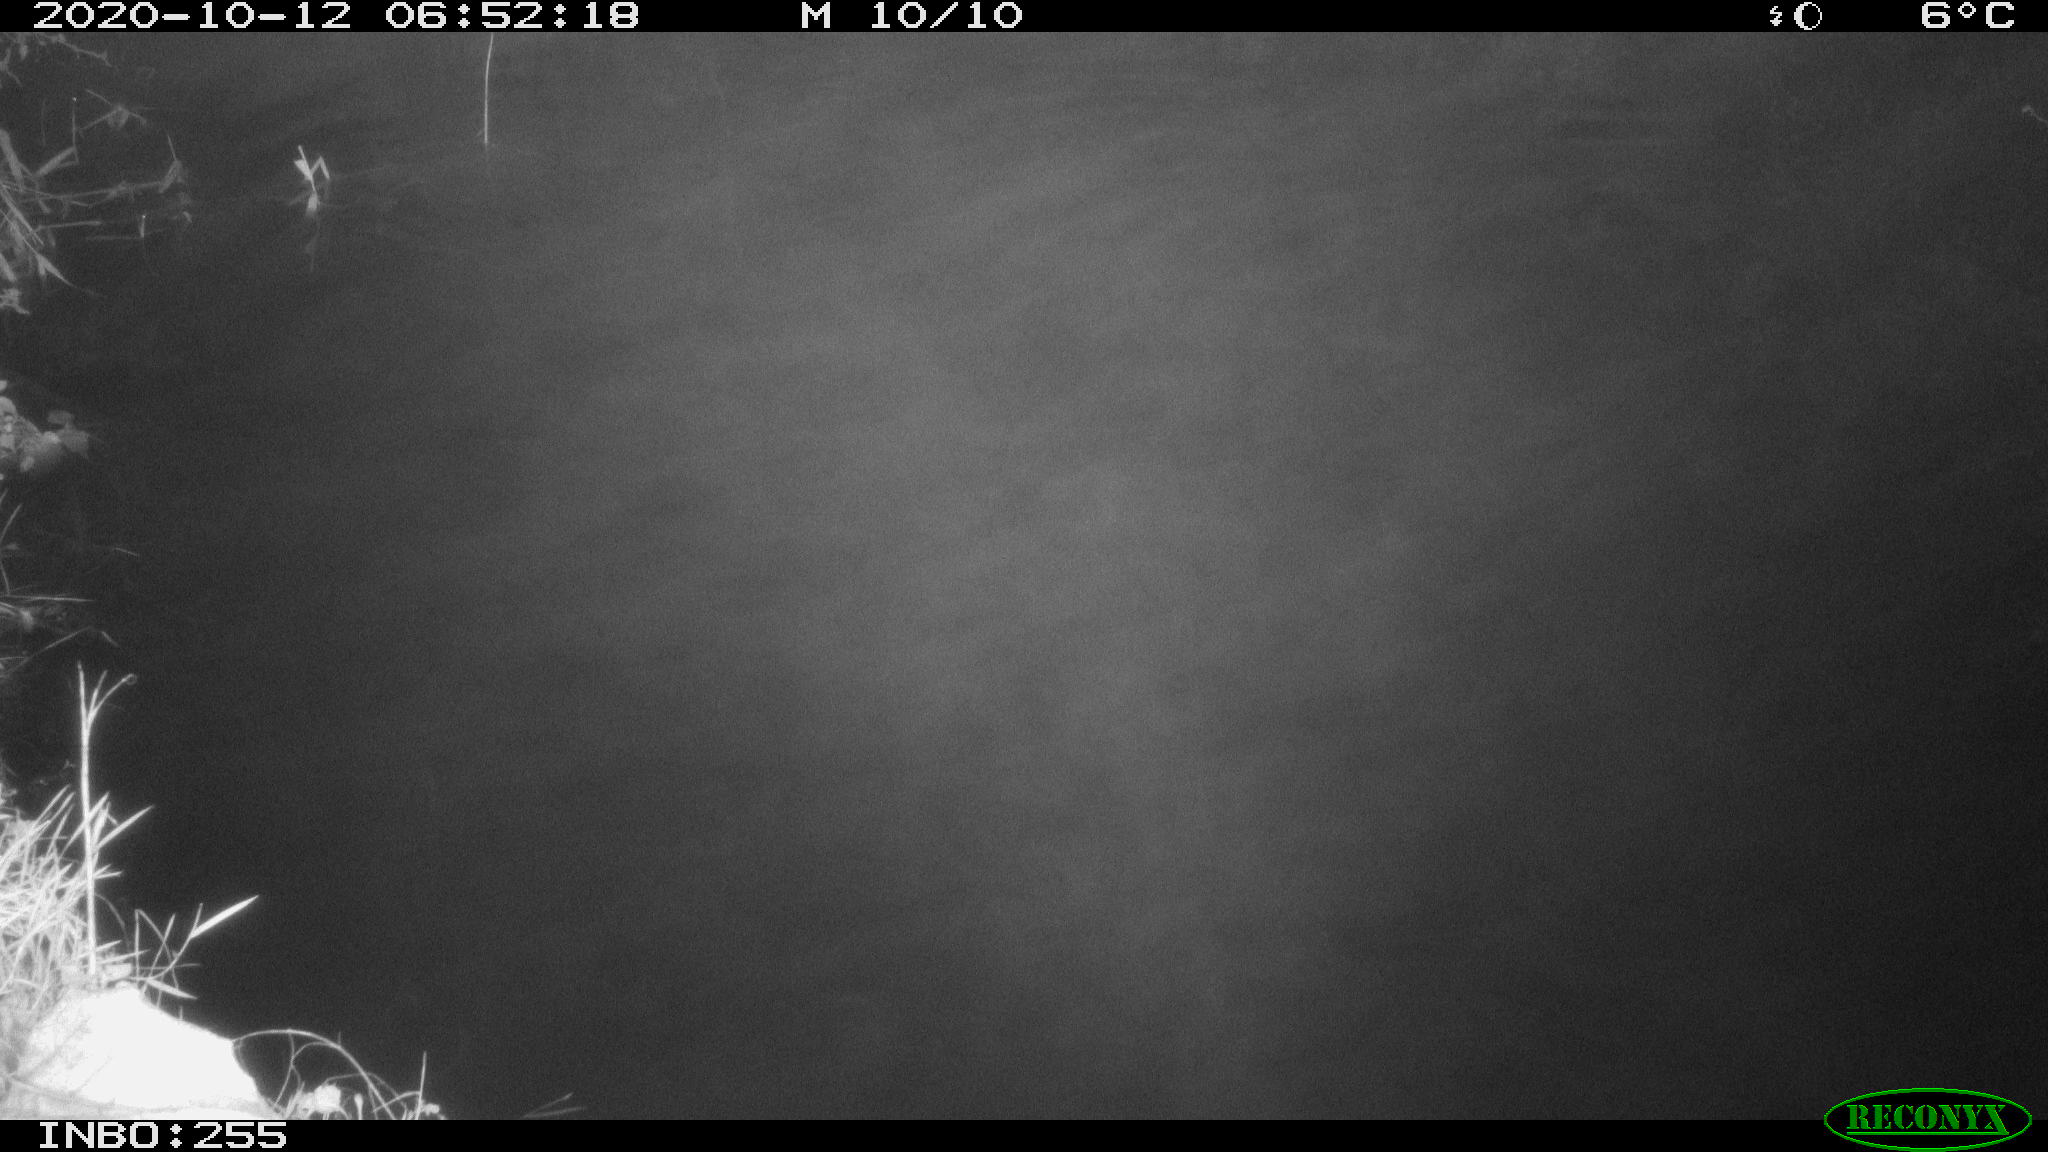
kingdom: Animalia
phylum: Chordata
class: Mammalia
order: Rodentia
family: Muridae
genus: Rattus
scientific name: Rattus norvegicus
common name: Brown rat
